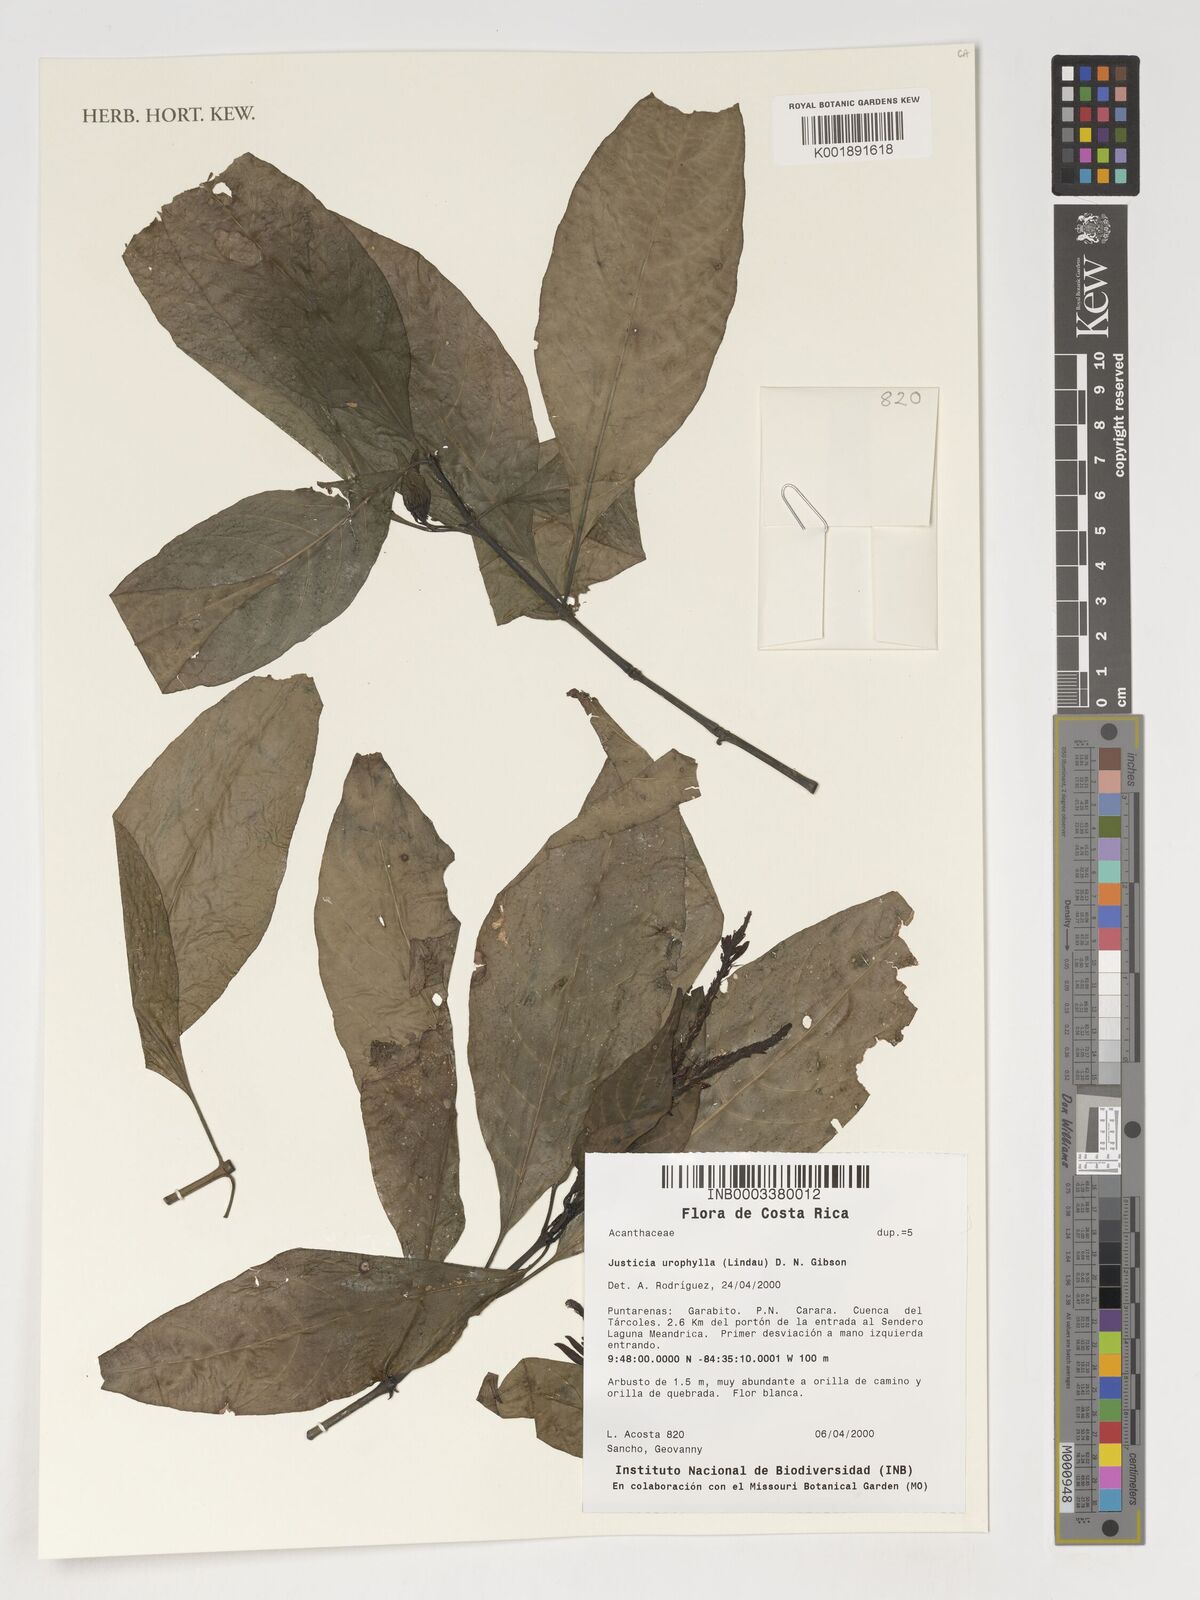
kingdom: Plantae
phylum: Tracheophyta
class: Magnoliopsida
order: Lamiales
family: Acanthaceae
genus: Justicia
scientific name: Justicia urophylla
